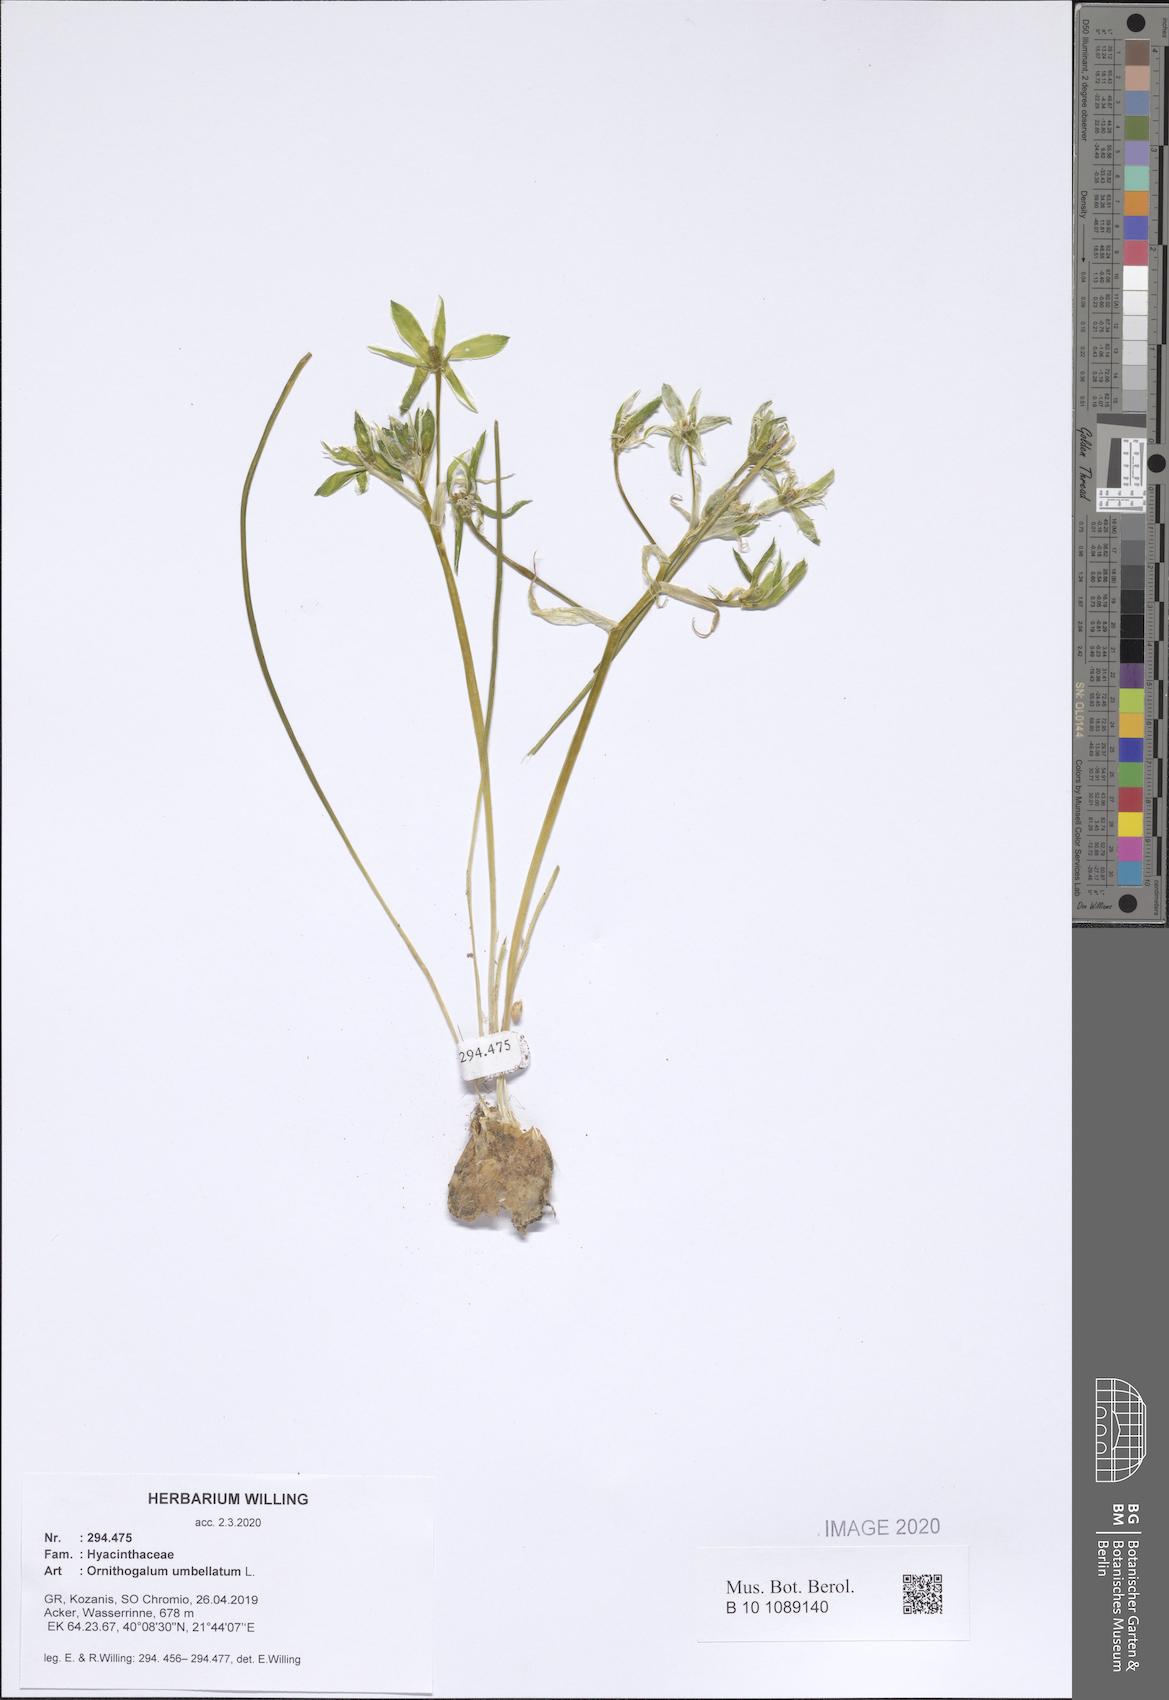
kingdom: Plantae
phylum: Tracheophyta
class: Liliopsida
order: Asparagales
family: Asparagaceae
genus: Ornithogalum
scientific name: Ornithogalum umbellatum
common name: Garden star-of-bethlehem
